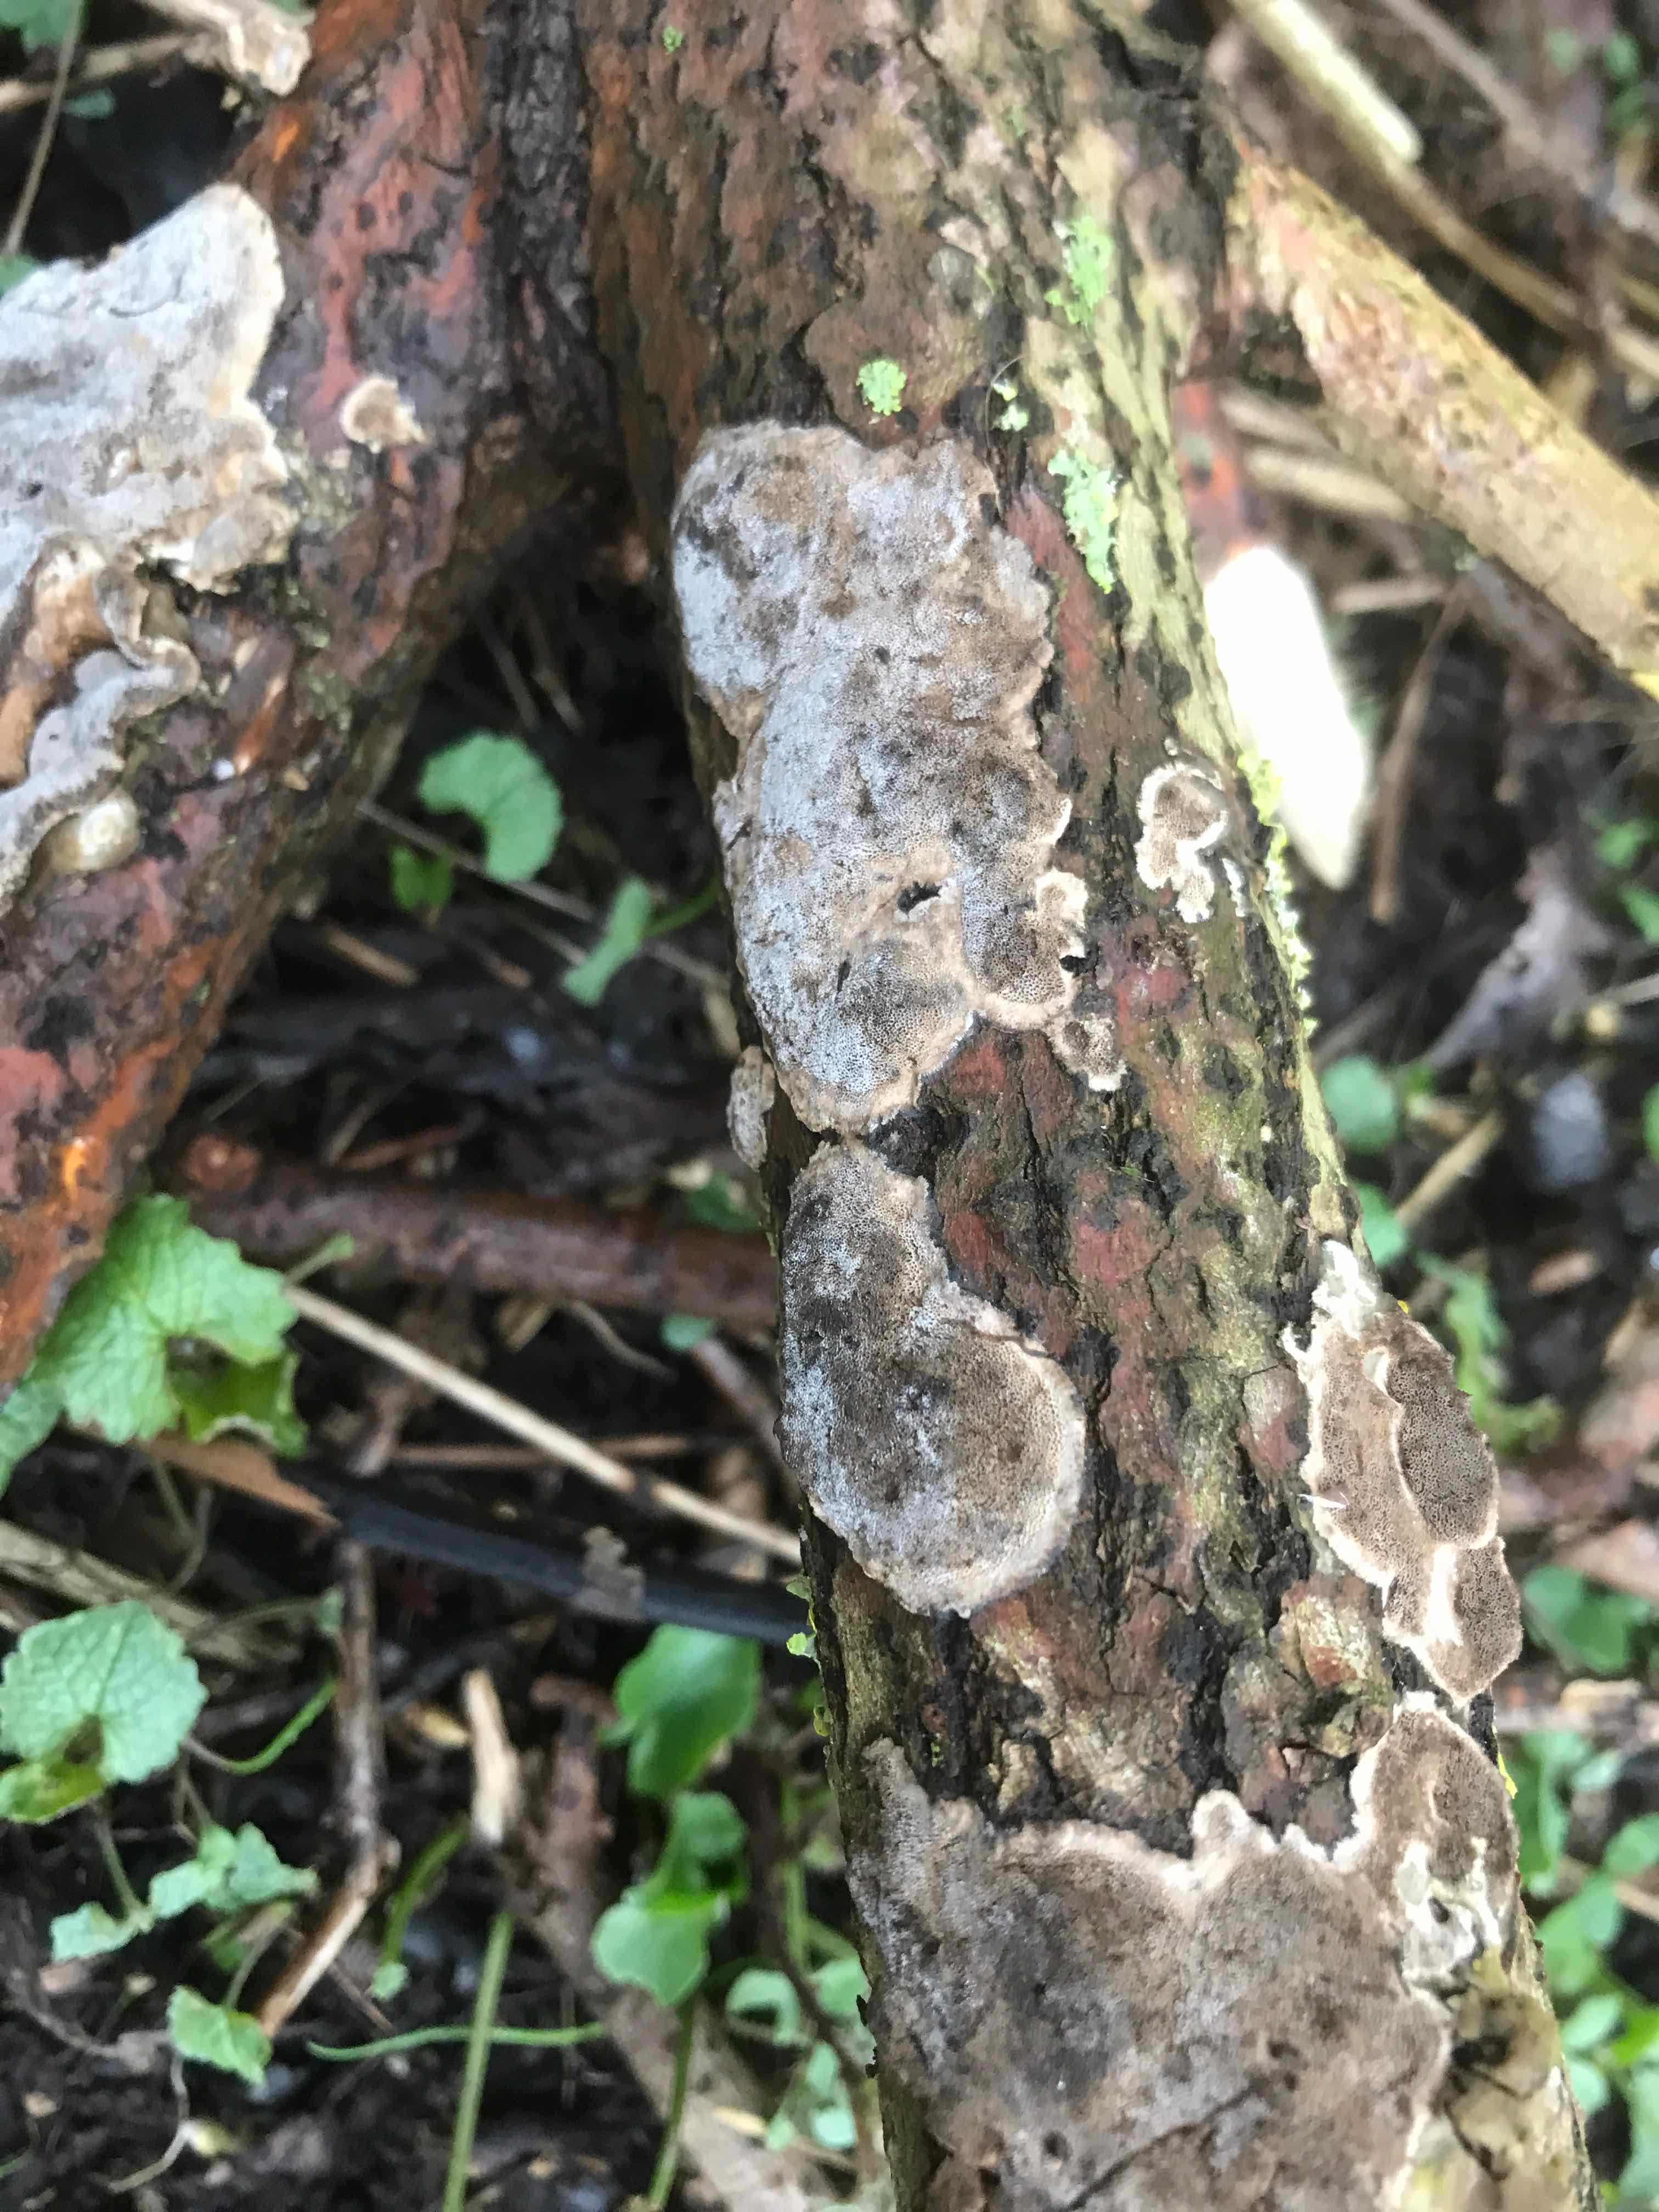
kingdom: Fungi
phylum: Basidiomycota
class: Agaricomycetes
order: Polyporales
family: Phanerochaetaceae
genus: Bjerkandera
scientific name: Bjerkandera adusta
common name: sveden sodporesvamp
